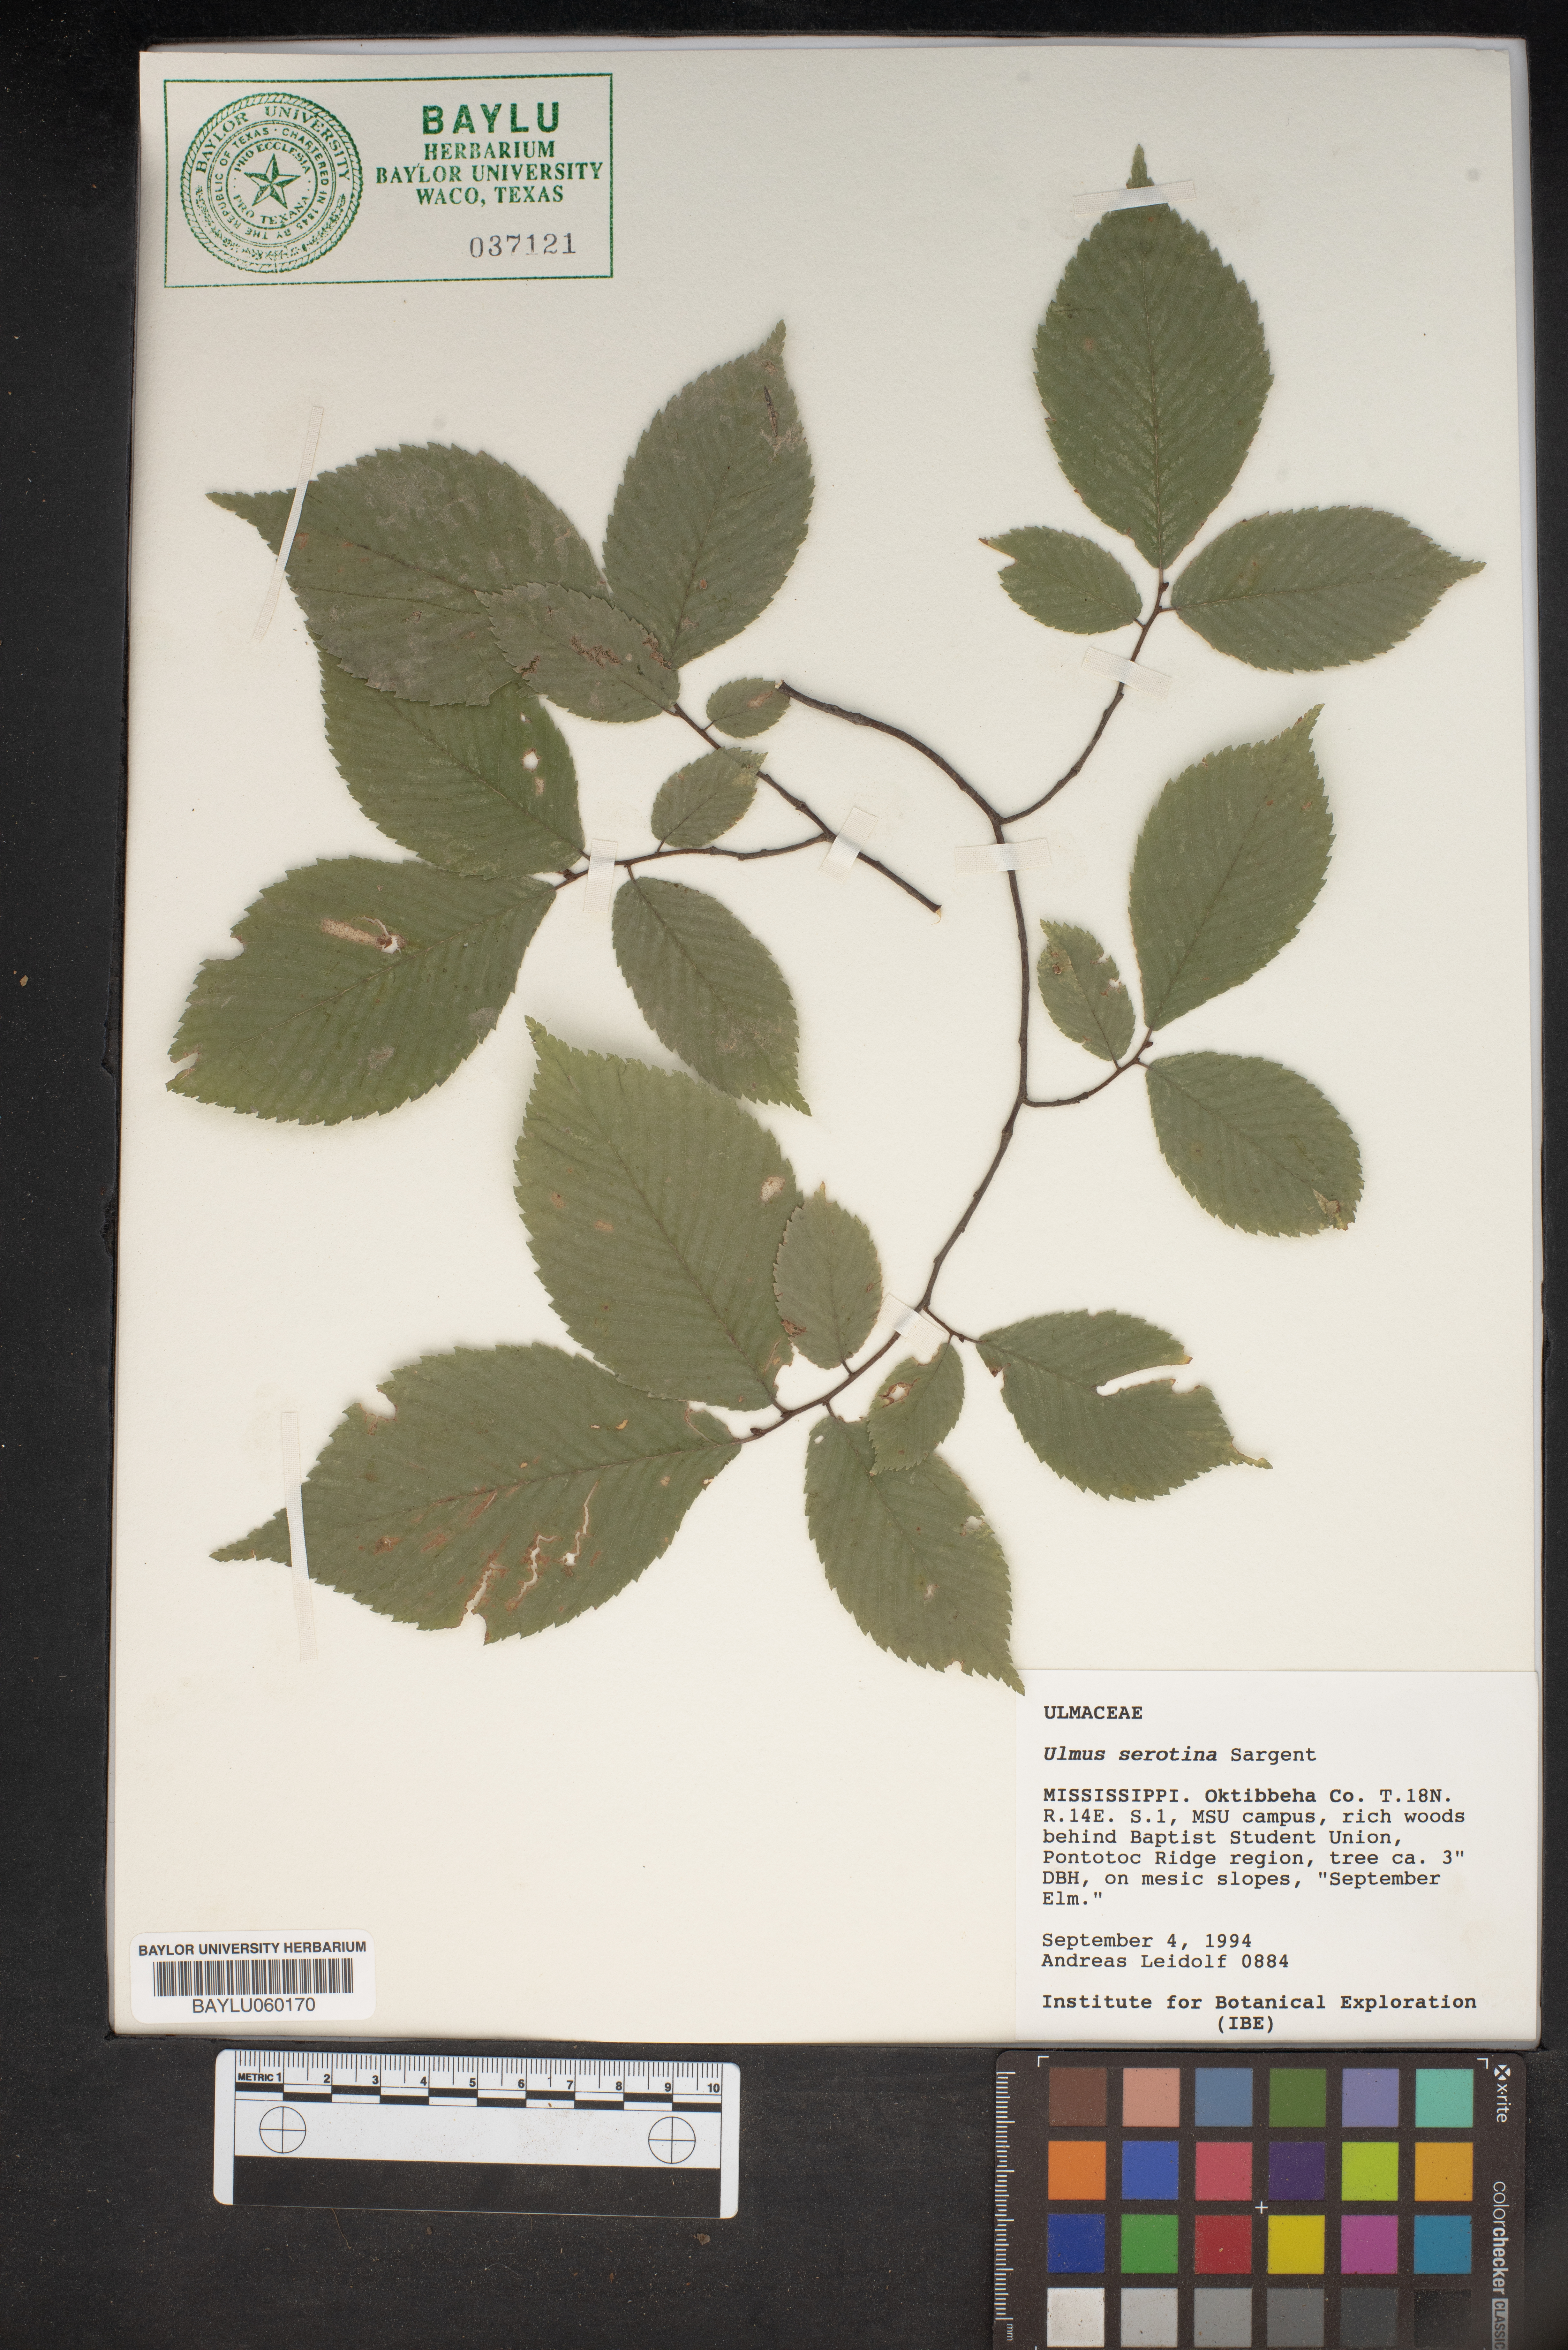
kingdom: Plantae
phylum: Tracheophyta
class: Magnoliopsida
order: Rosales
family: Ulmaceae
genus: Ulmus
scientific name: Ulmus serotina
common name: September elm
